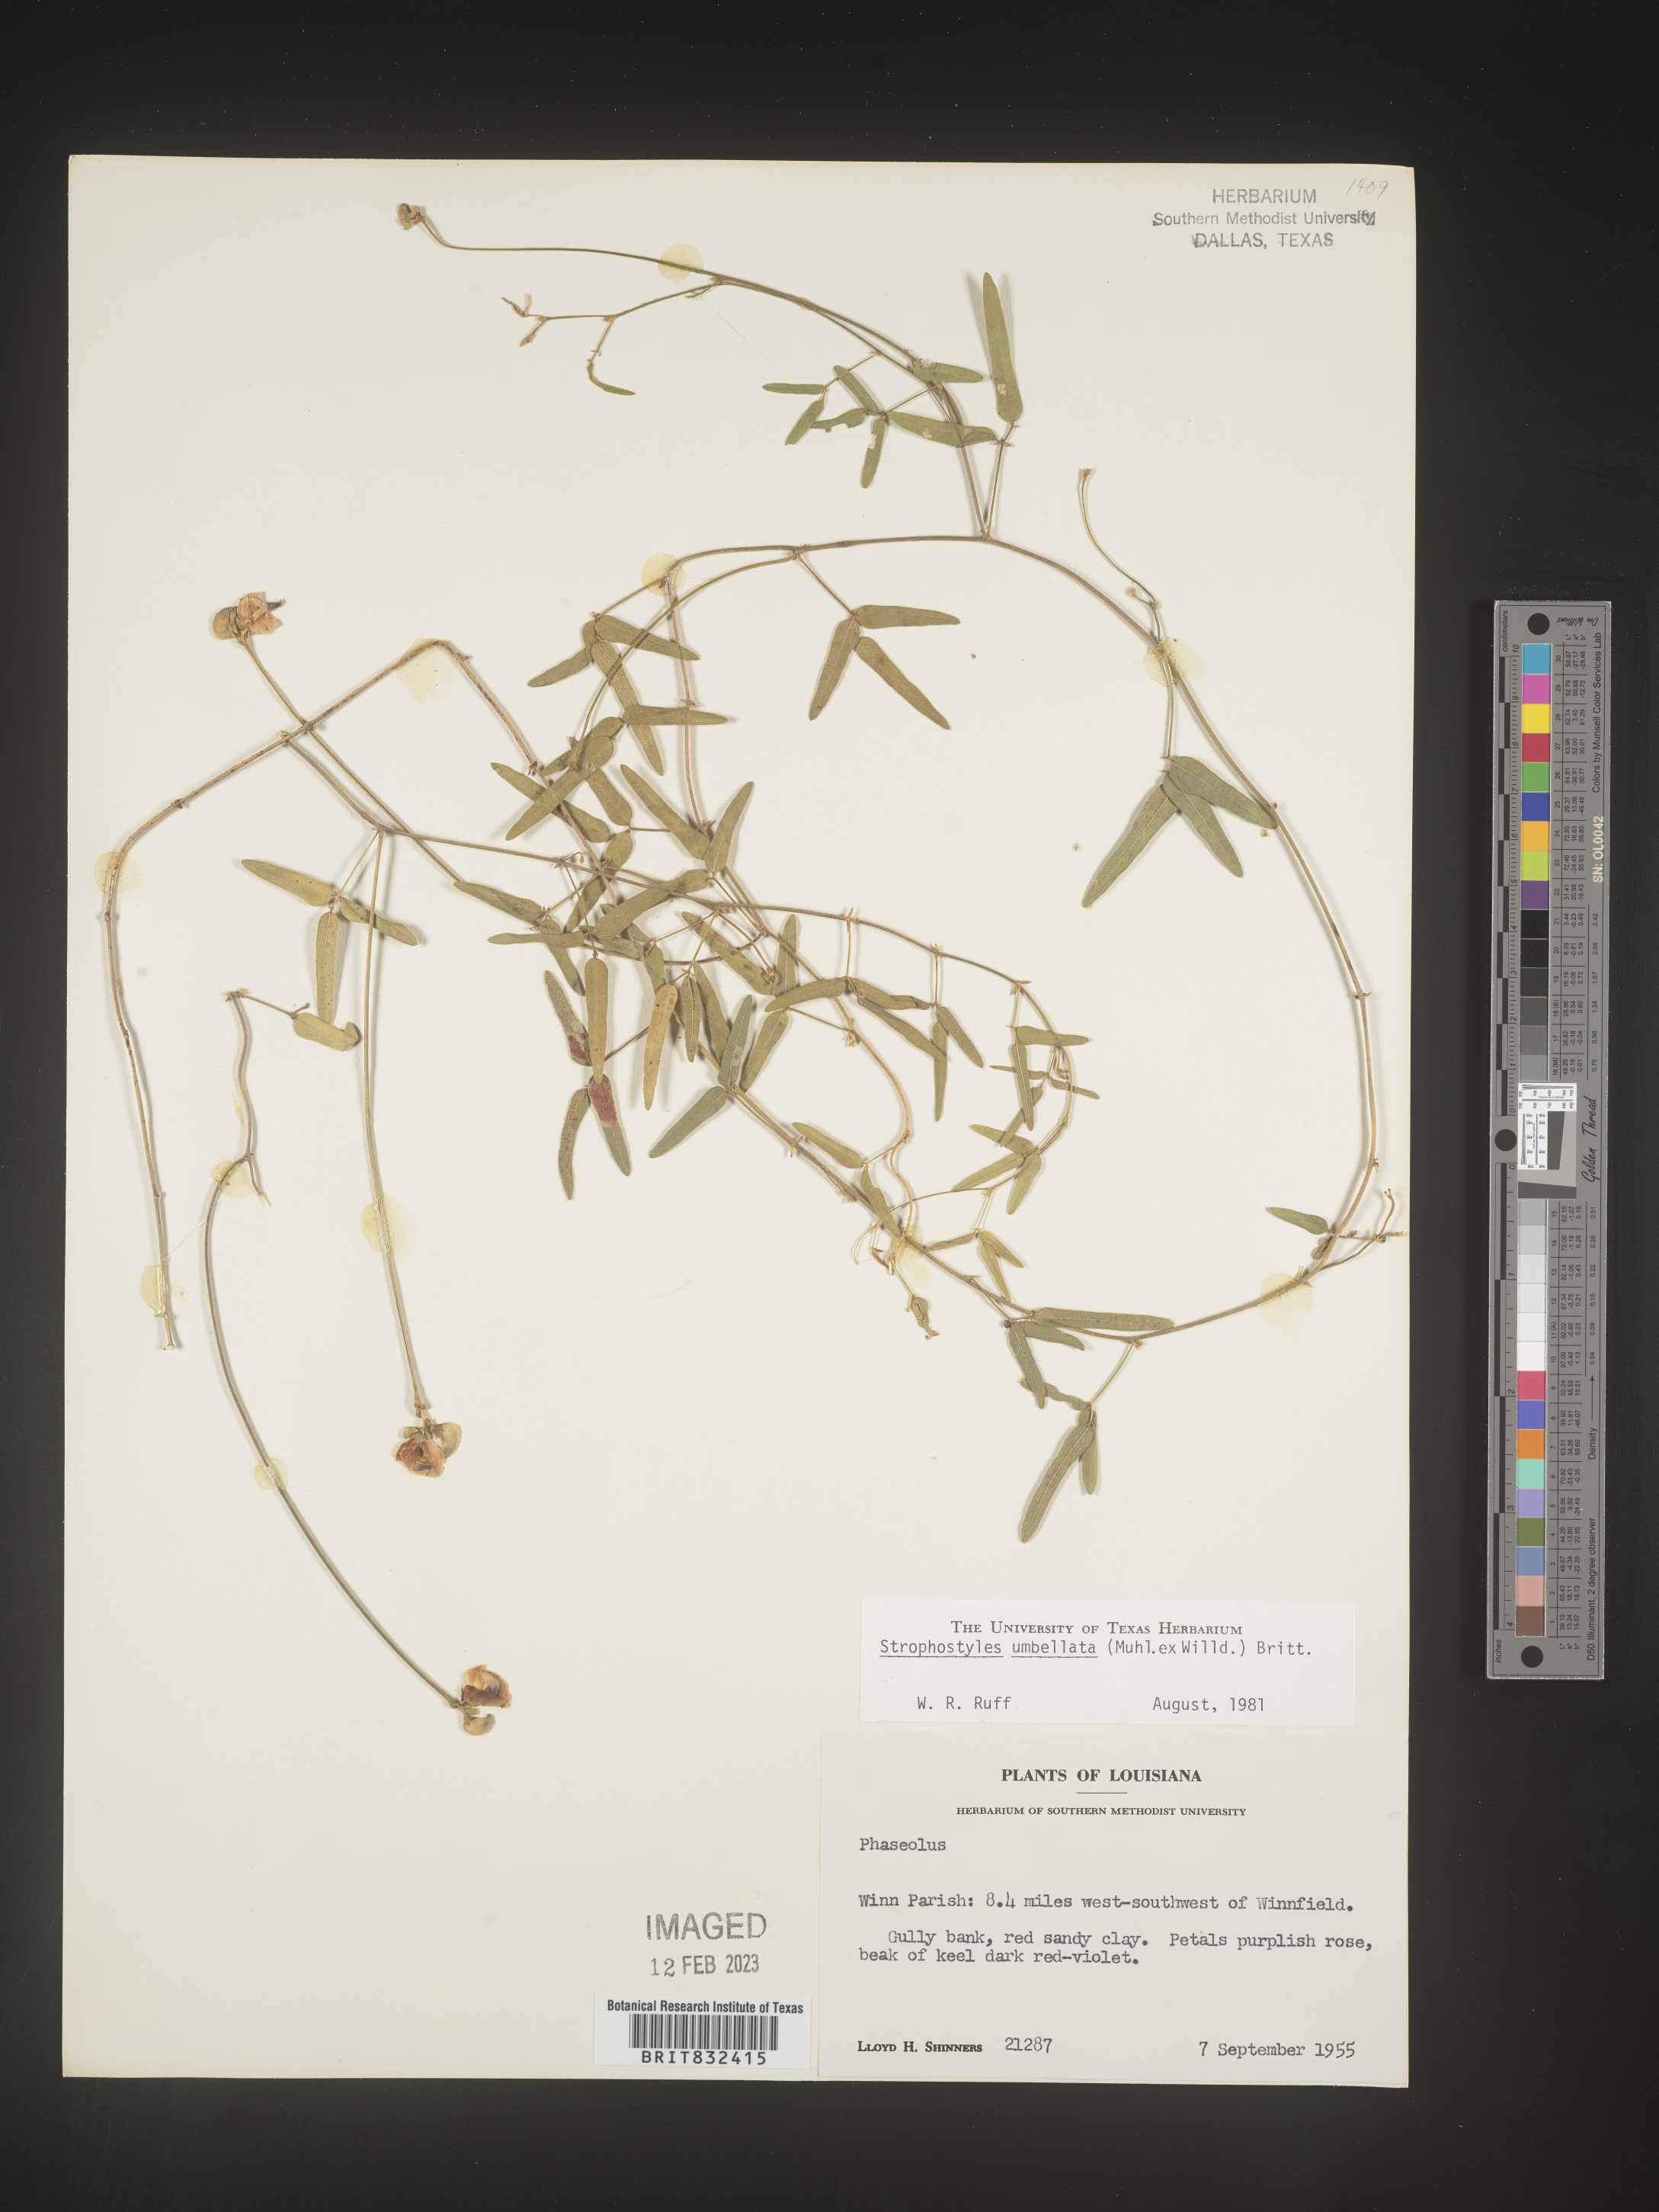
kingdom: Plantae
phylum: Tracheophyta
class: Magnoliopsida
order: Fabales
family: Fabaceae
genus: Strophostyles
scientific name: Strophostyles umbellata
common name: Perennial wild bean
